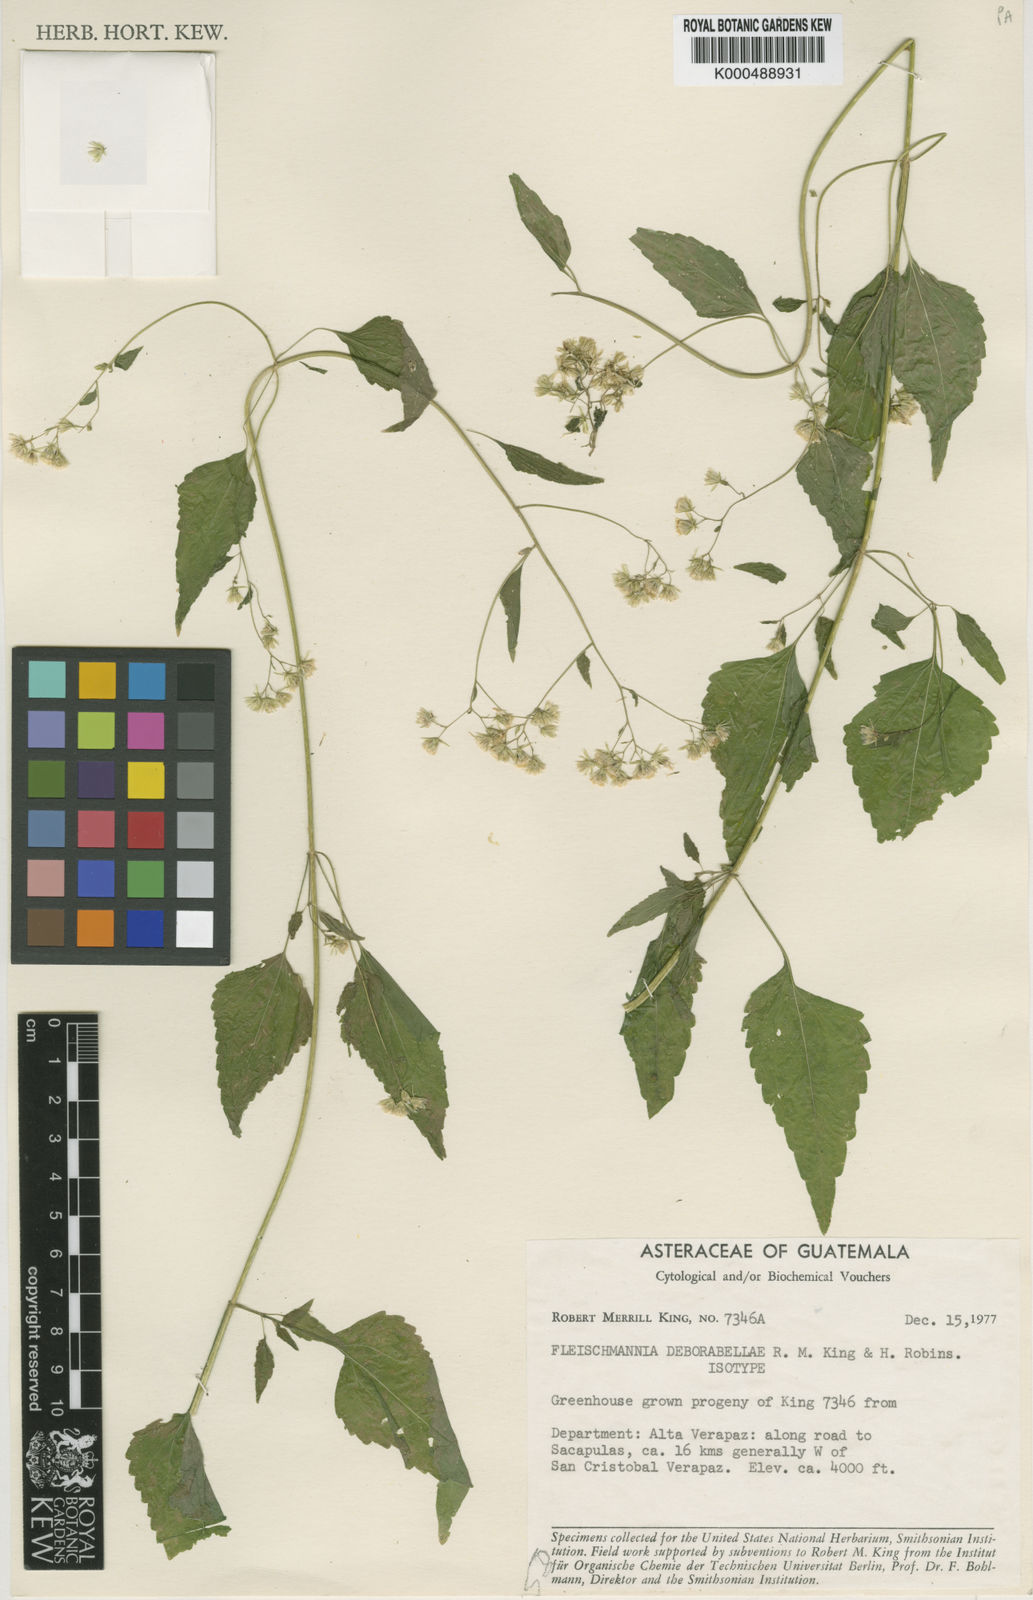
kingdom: Plantae
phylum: Tracheophyta
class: Magnoliopsida
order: Asterales
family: Asteraceae
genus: Fleischmannia
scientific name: Fleischmannia deborabellae
